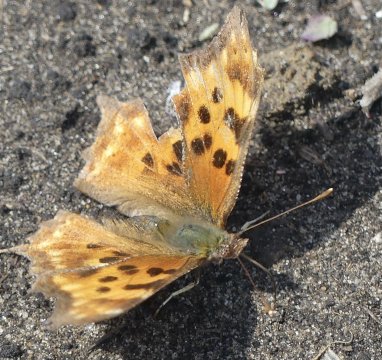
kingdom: Animalia
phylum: Arthropoda
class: Insecta
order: Lepidoptera
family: Nymphalidae
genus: Polygonia
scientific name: Polygonia satyrus
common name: Satyr Comma
